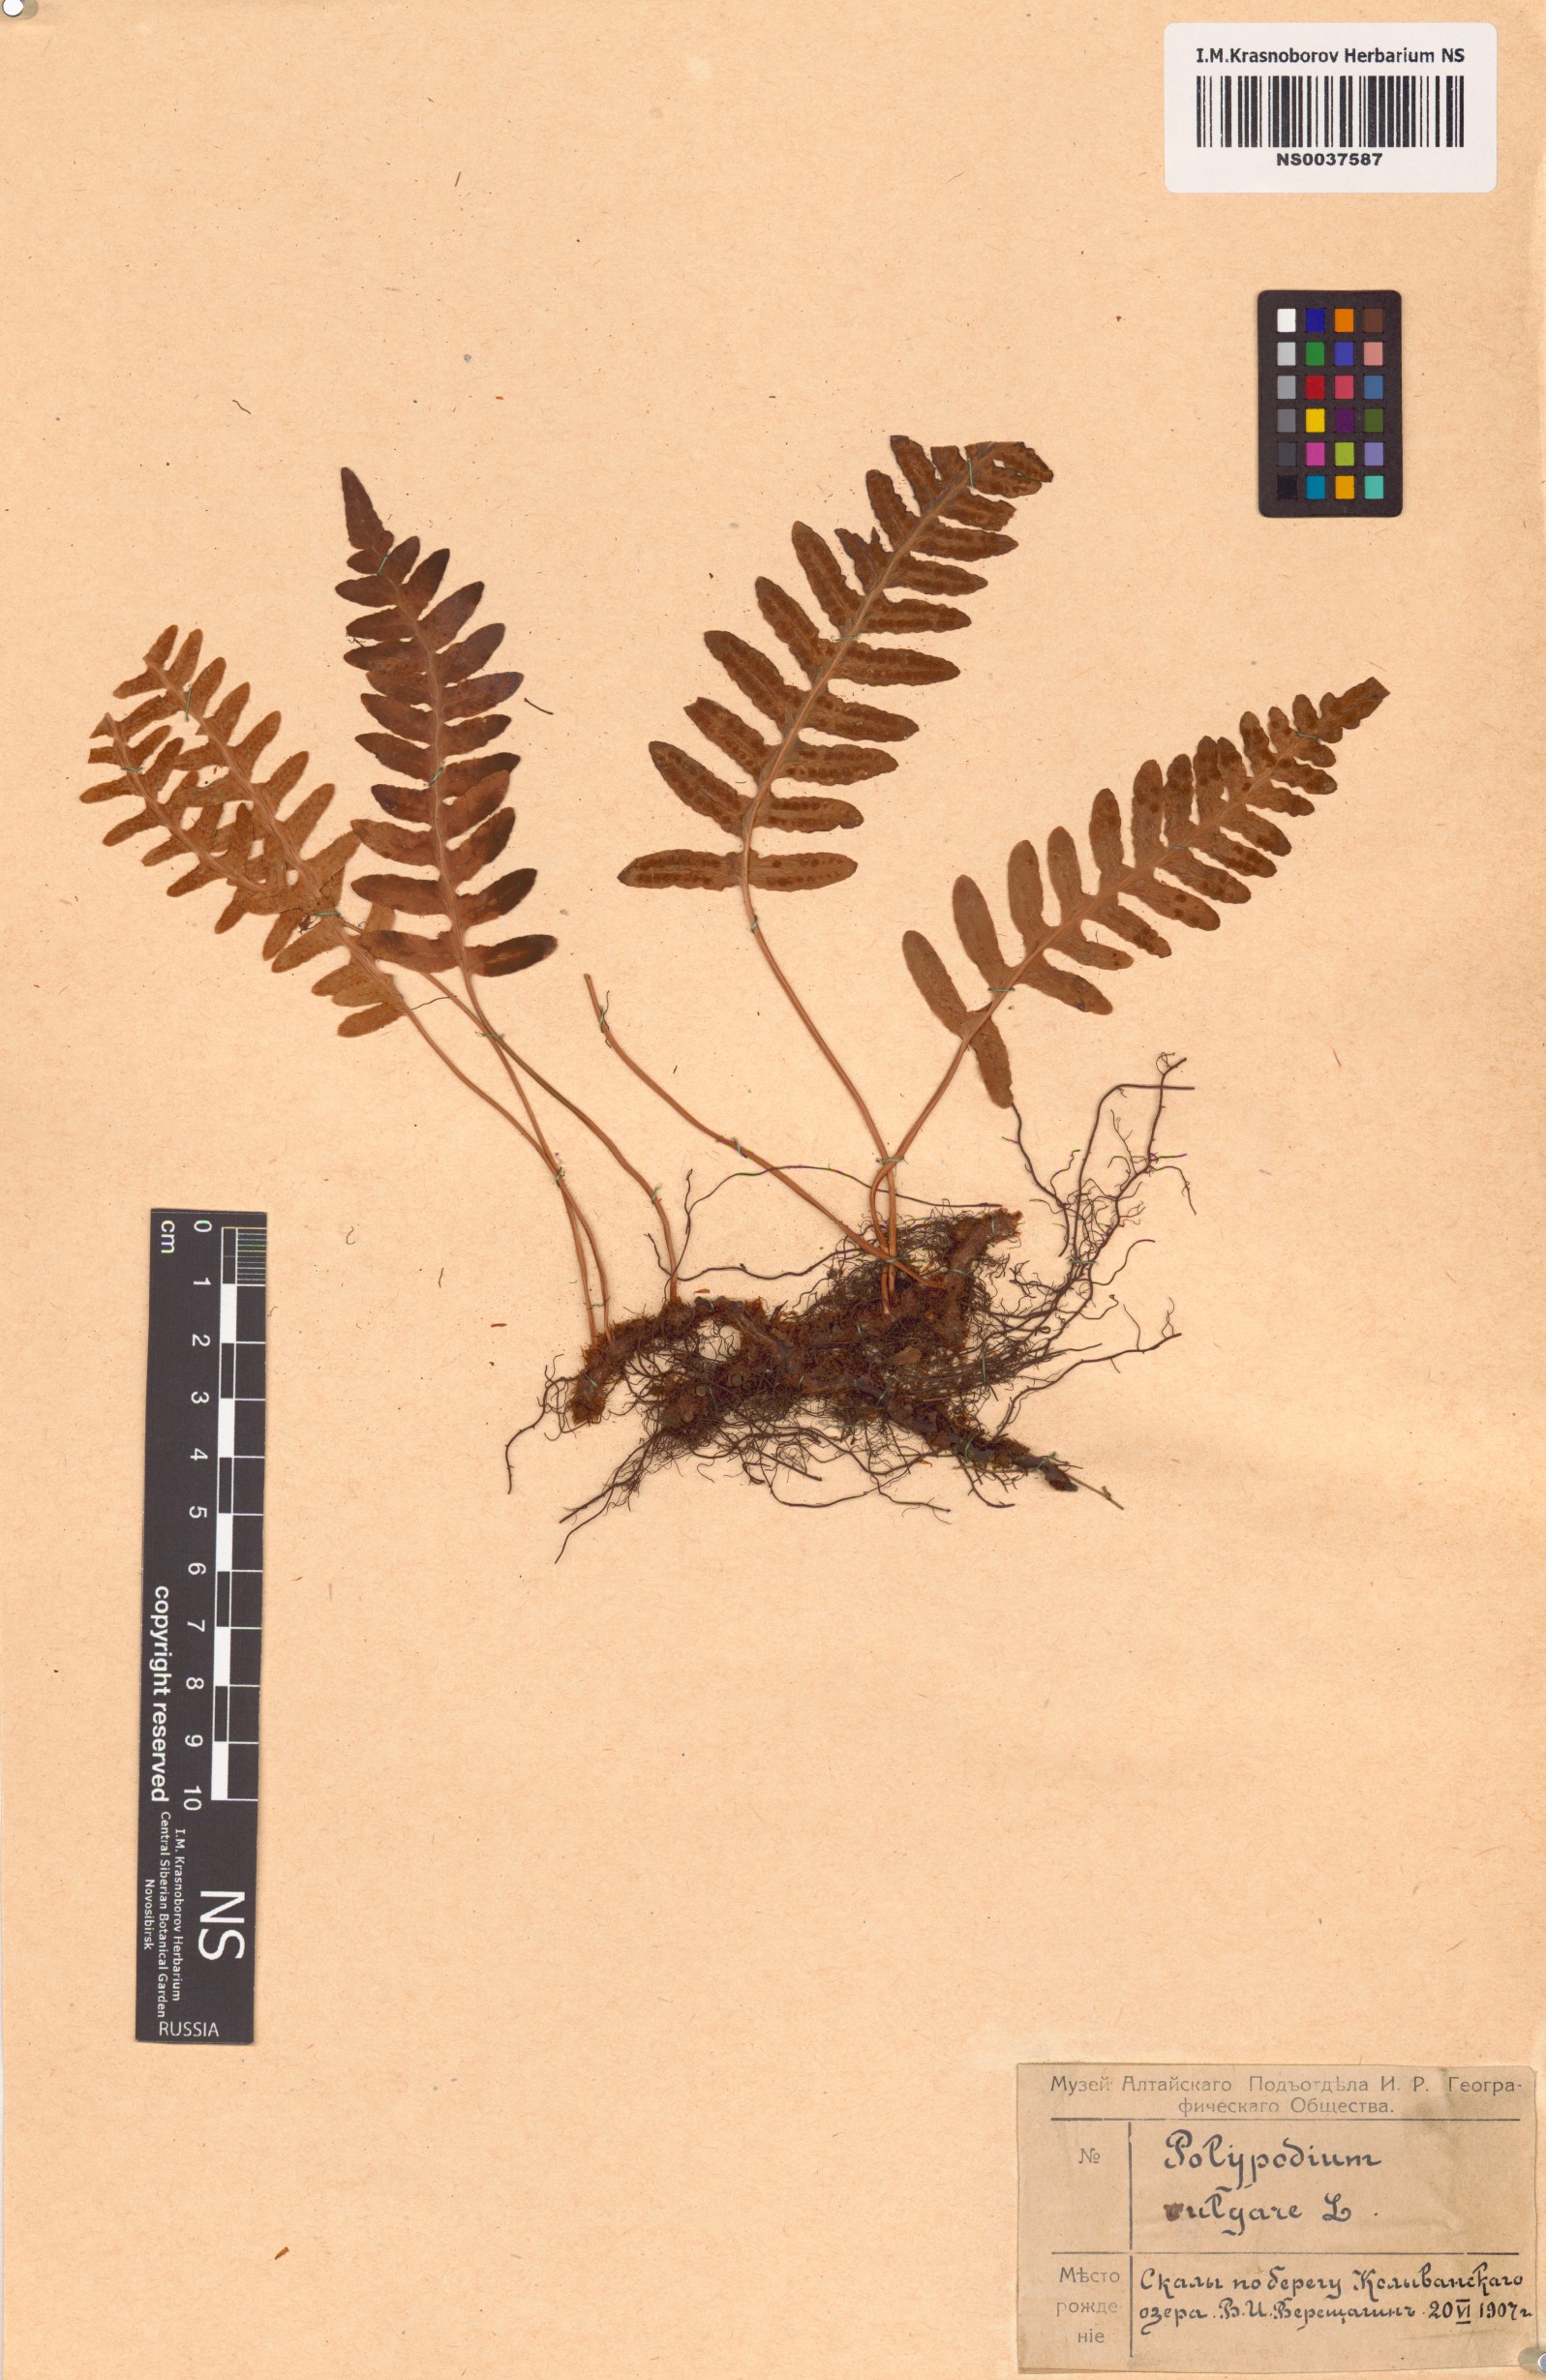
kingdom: Plantae
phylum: Tracheophyta
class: Polypodiopsida
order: Polypodiales
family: Polypodiaceae
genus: Polypodium
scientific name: Polypodium vulgare
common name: Common polypody
